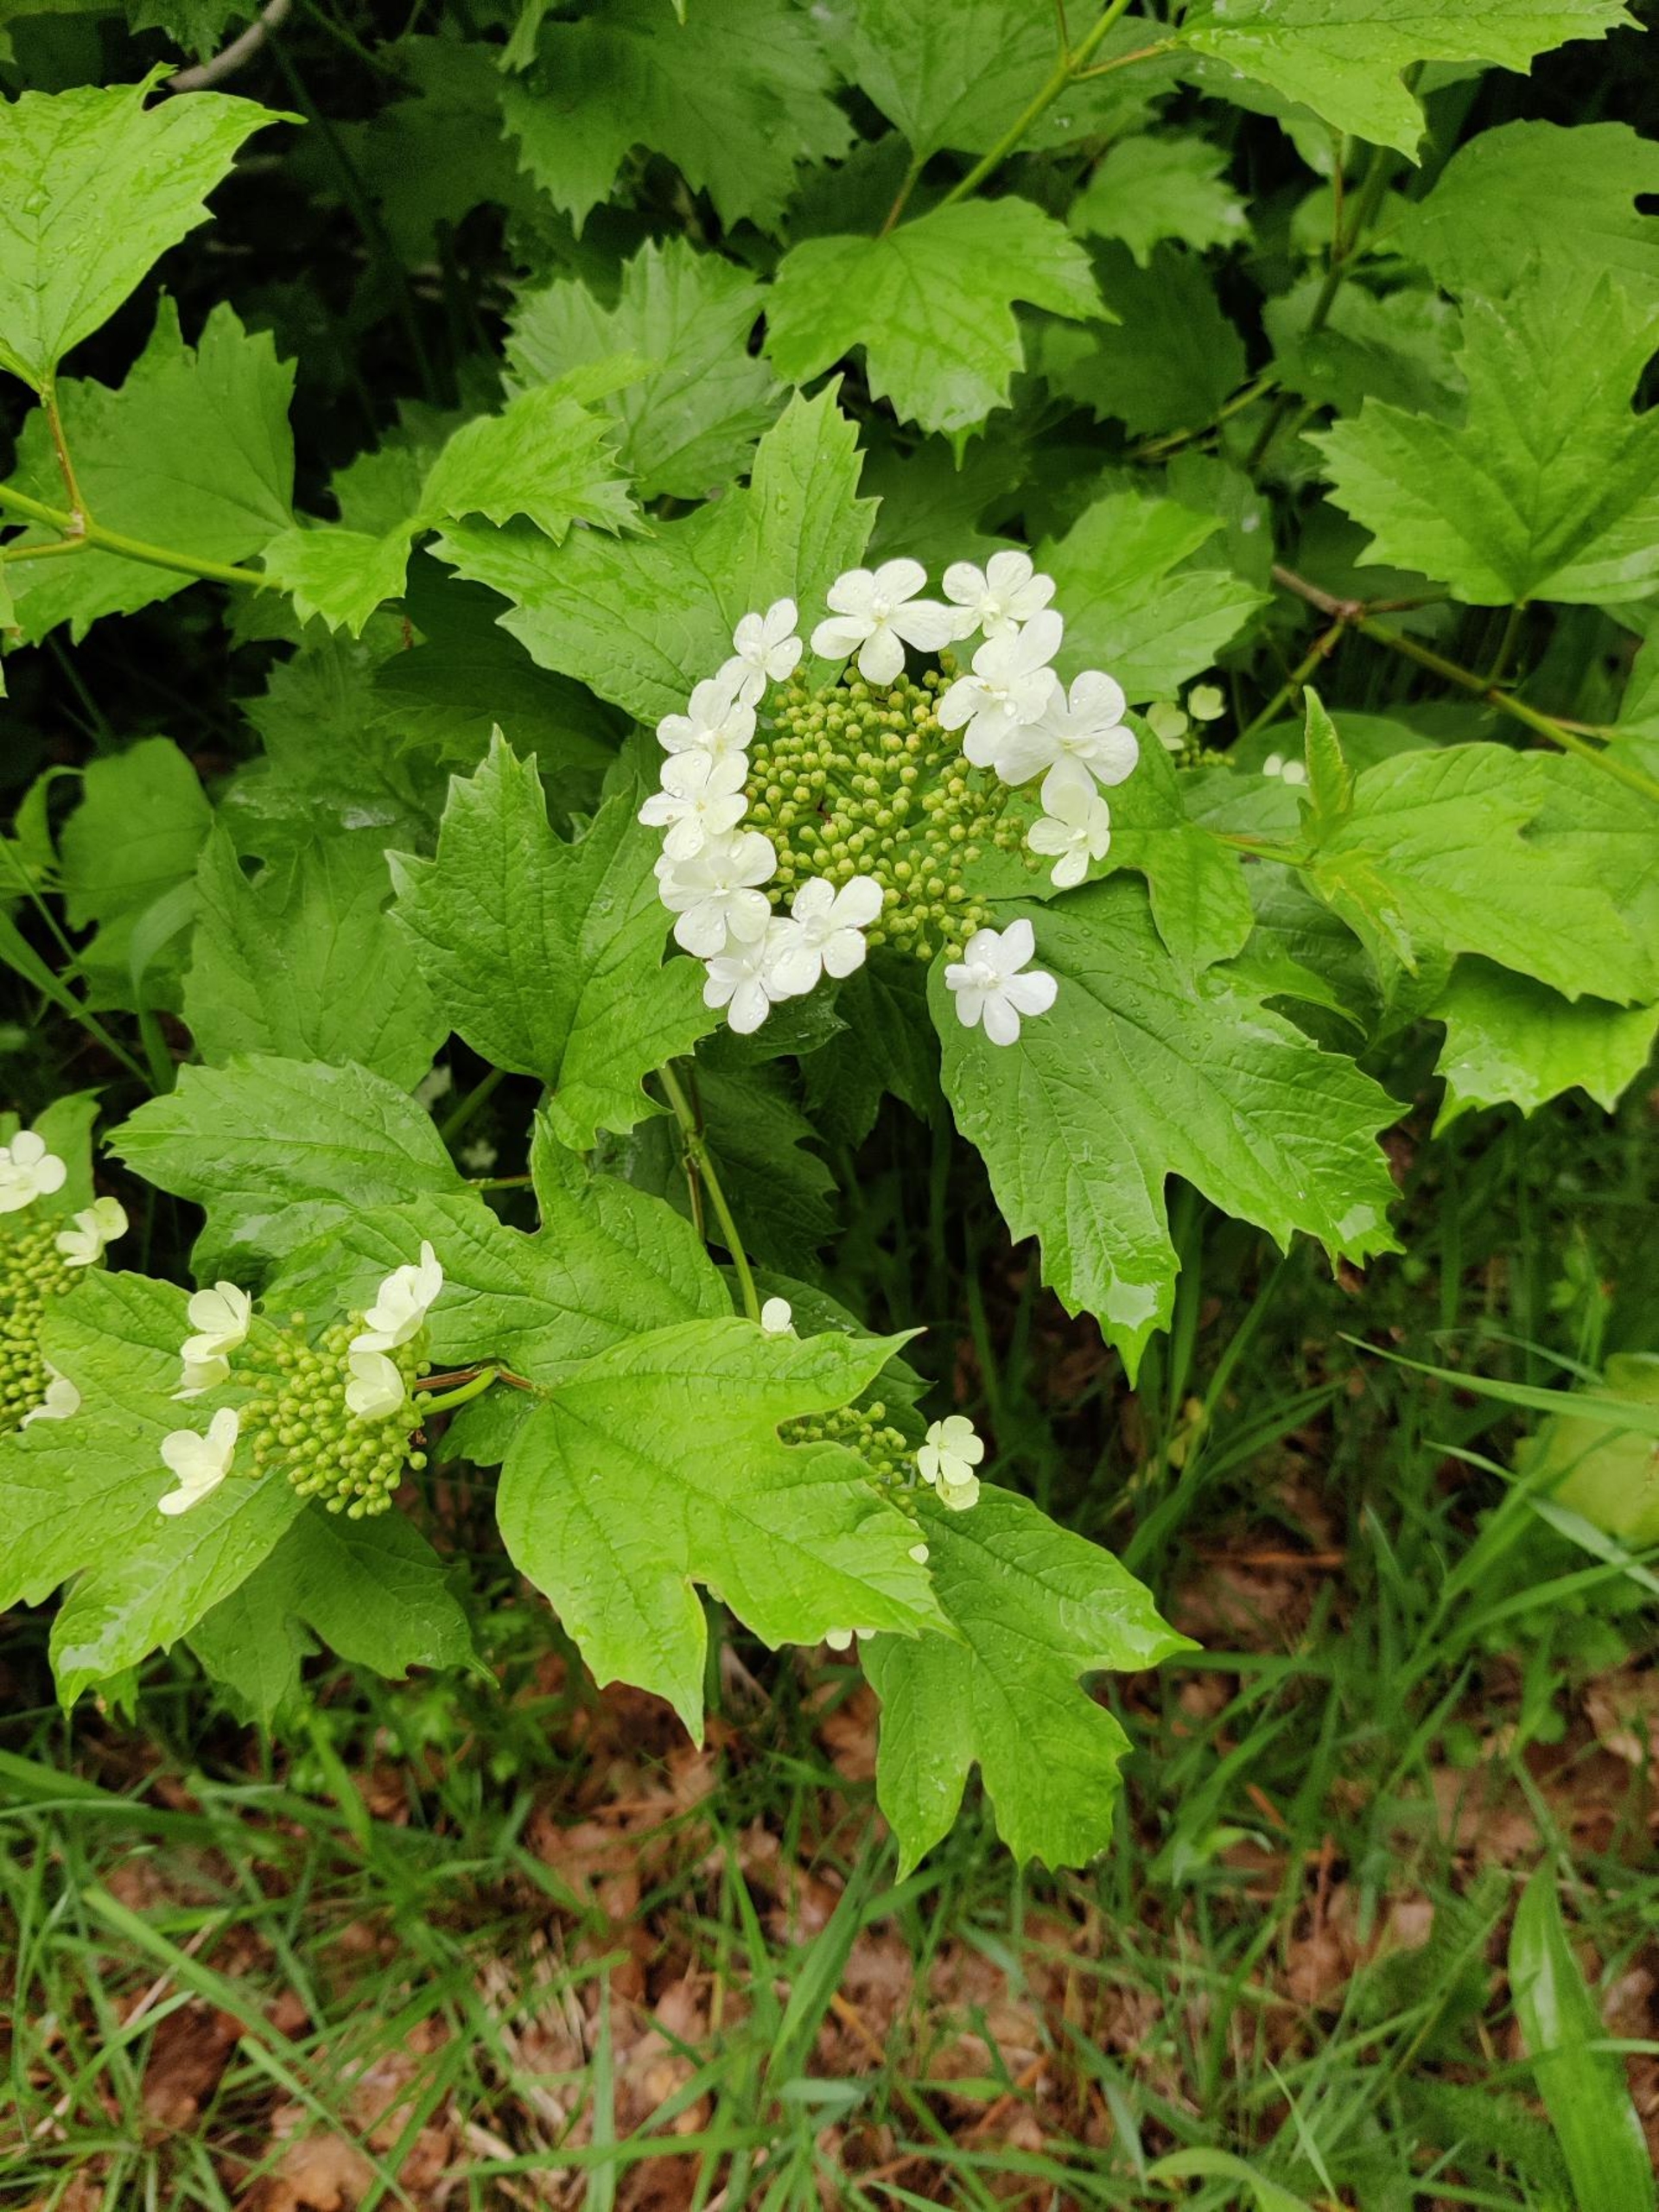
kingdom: Plantae
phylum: Tracheophyta
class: Magnoliopsida
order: Dipsacales
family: Viburnaceae
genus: Viburnum
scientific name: Viburnum opulus
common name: Kvalkved
